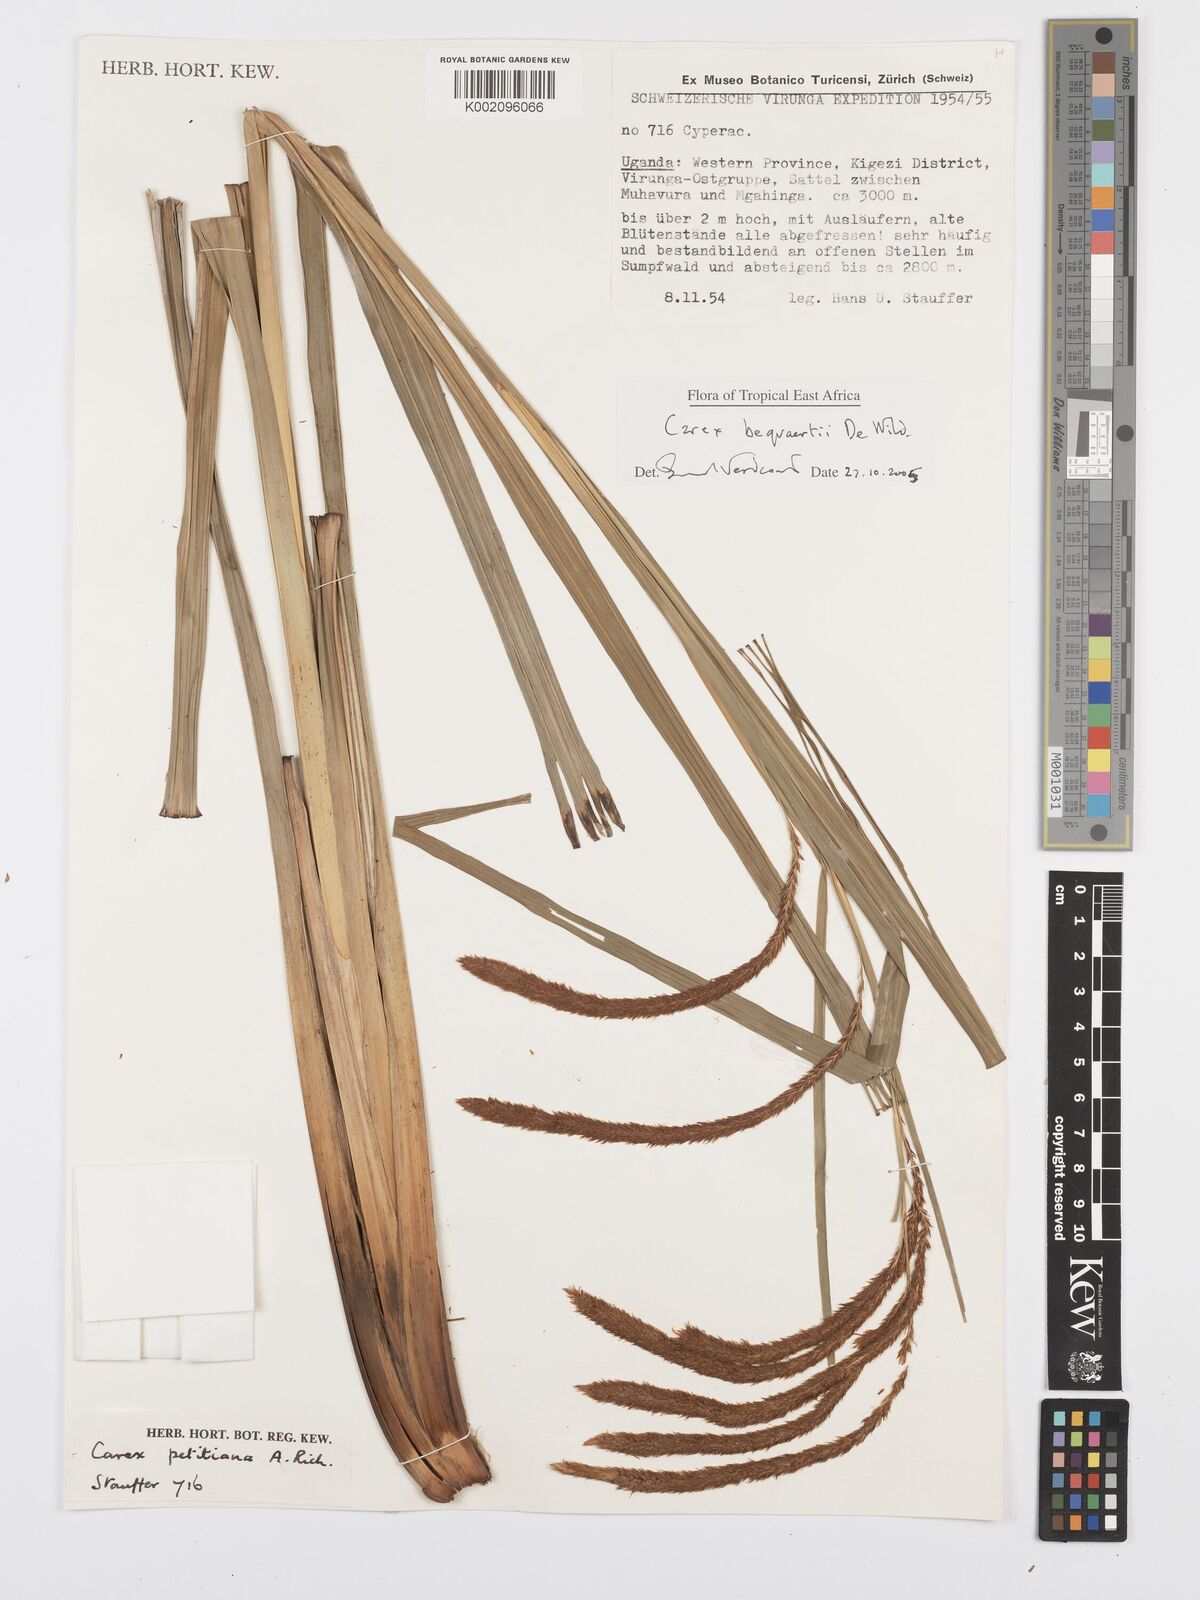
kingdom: Plantae
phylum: Tracheophyta
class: Liliopsida
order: Poales
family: Cyperaceae
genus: Carex
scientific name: Carex bequaertii
